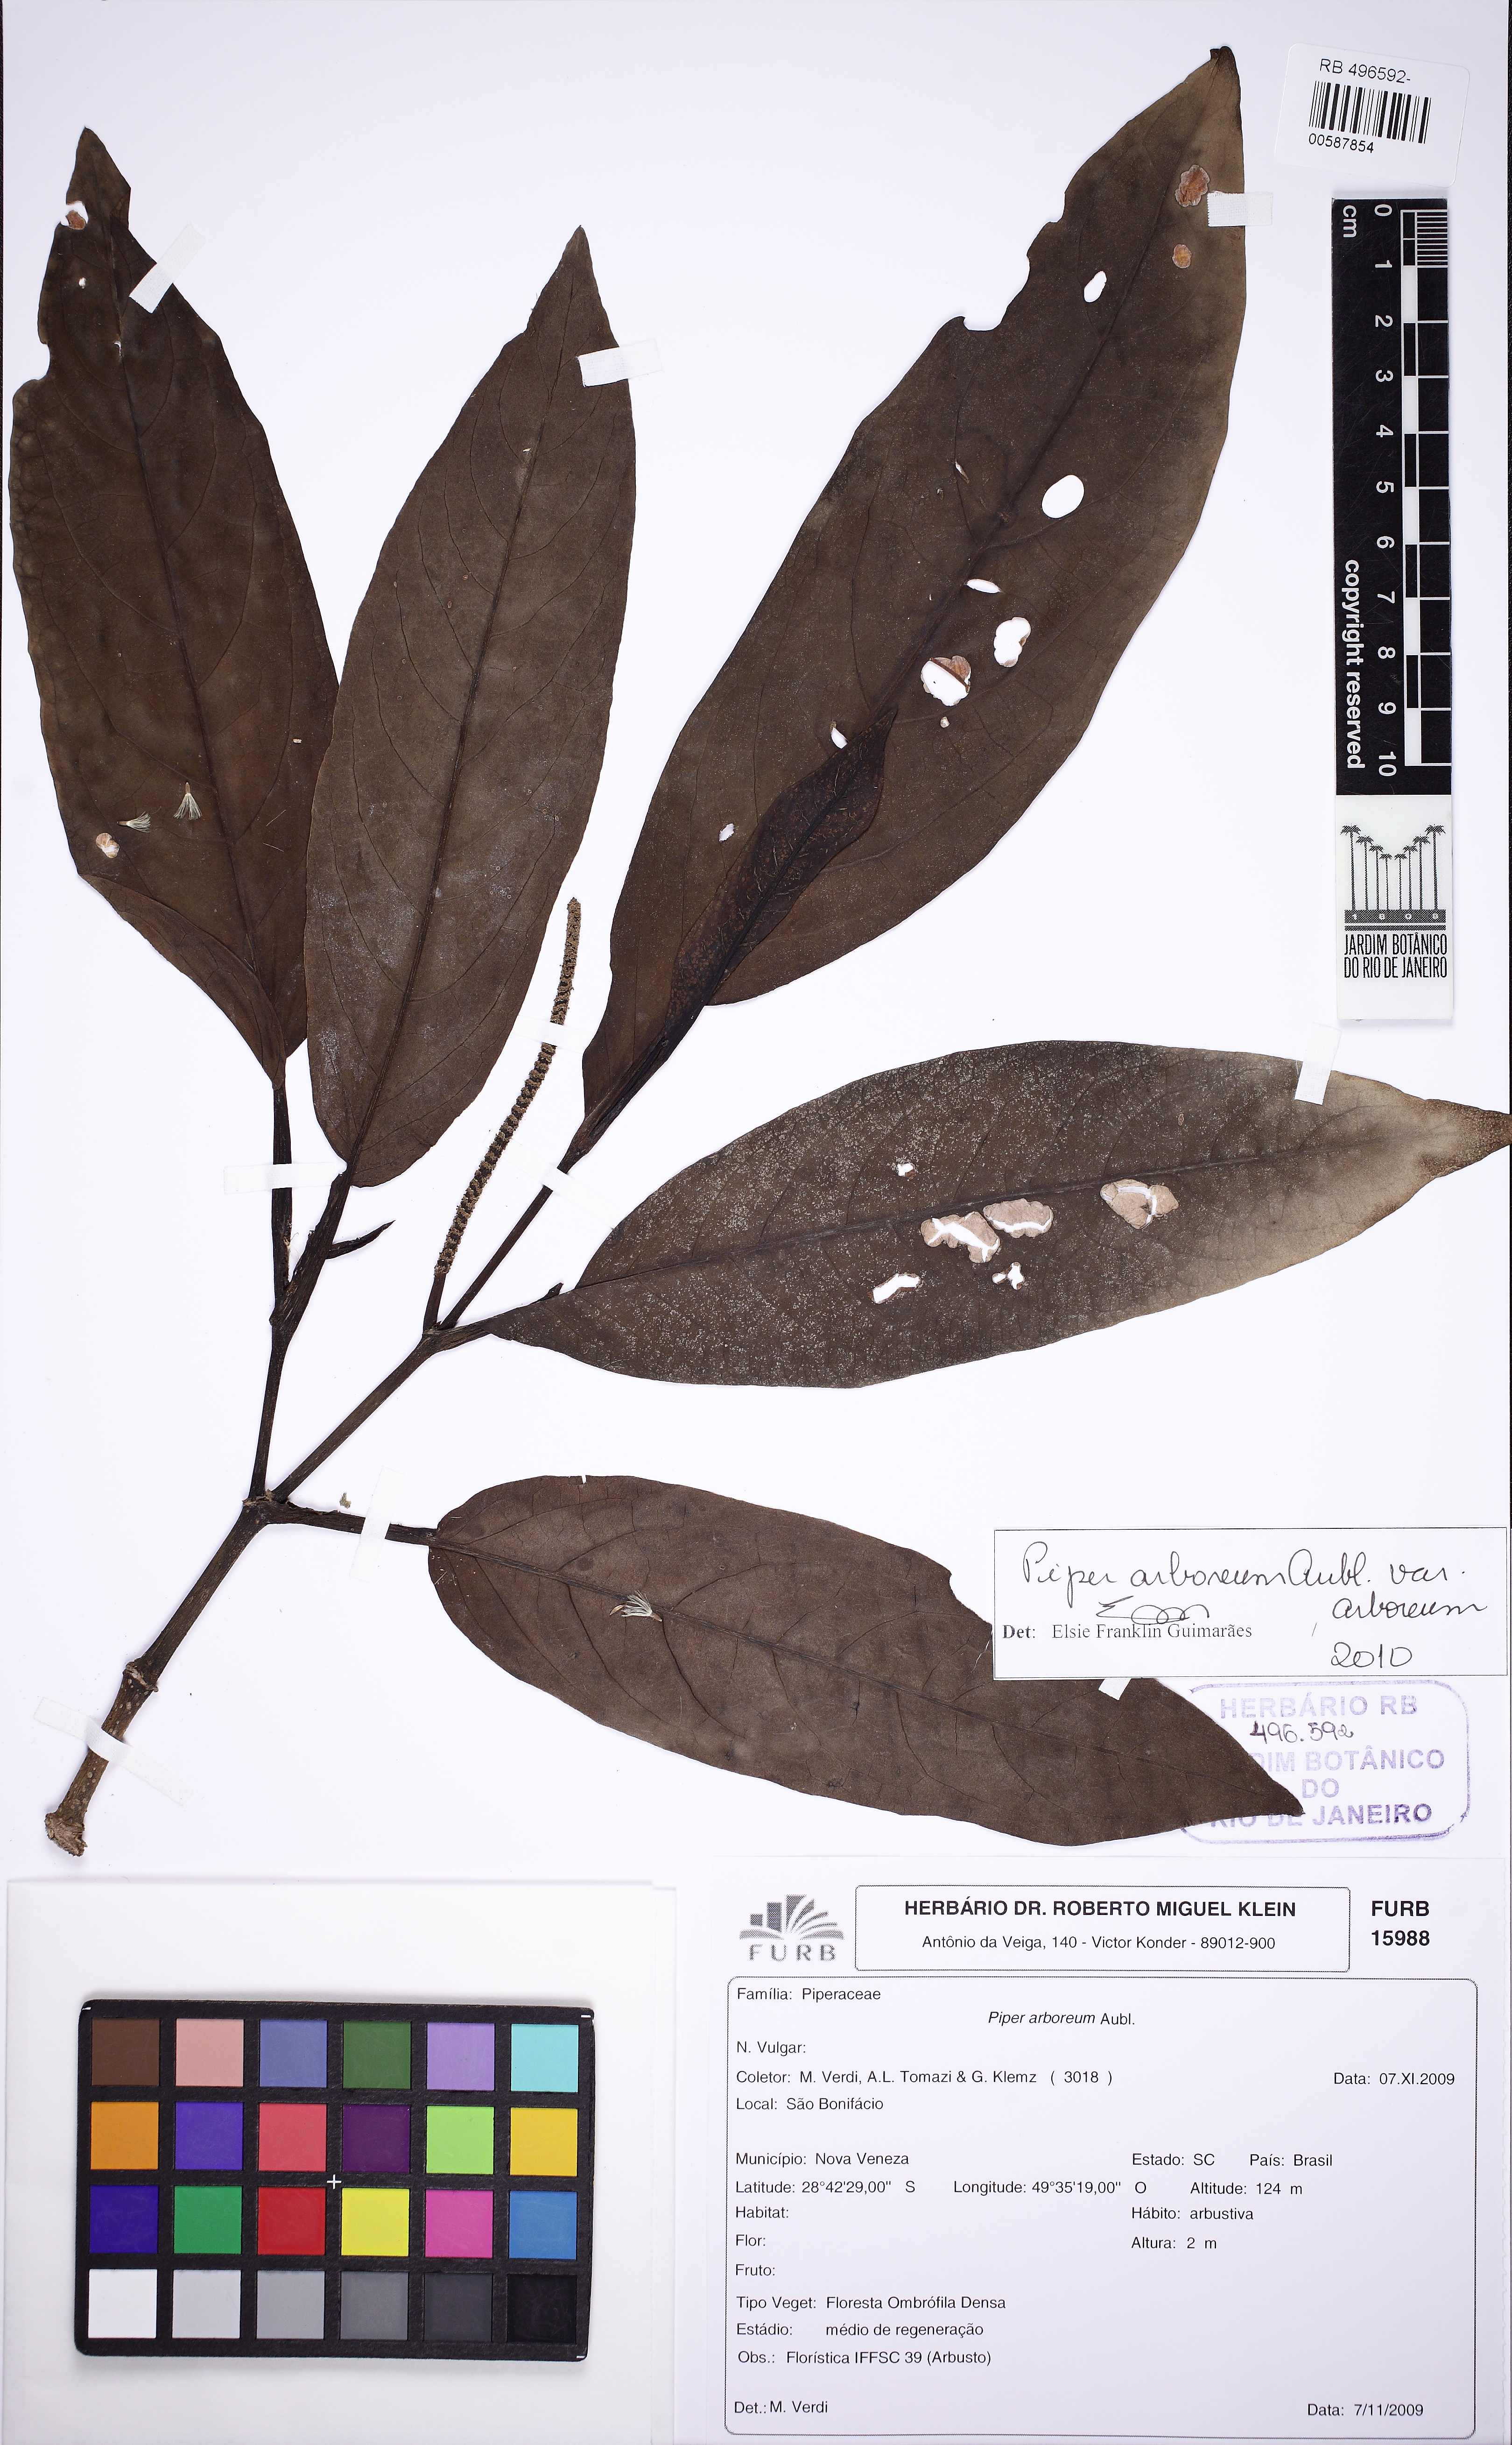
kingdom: Plantae
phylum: Tracheophyta
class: Magnoliopsida
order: Piperales
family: Piperaceae
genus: Piper
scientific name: Piper arboreum
